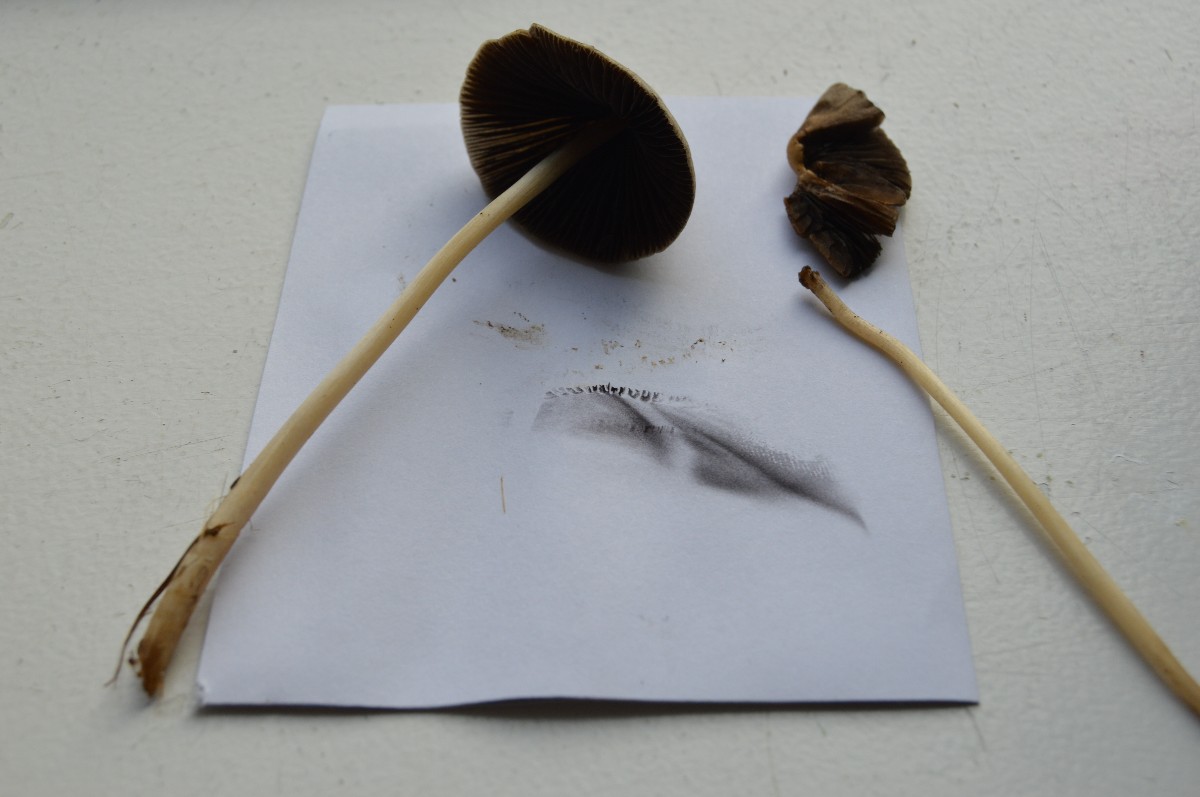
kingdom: Fungi
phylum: Basidiomycota
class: Agaricomycetes
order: Agaricales
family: Psathyrellaceae
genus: Parasola
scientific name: Parasola conopilea
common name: kegle-hjulhat
